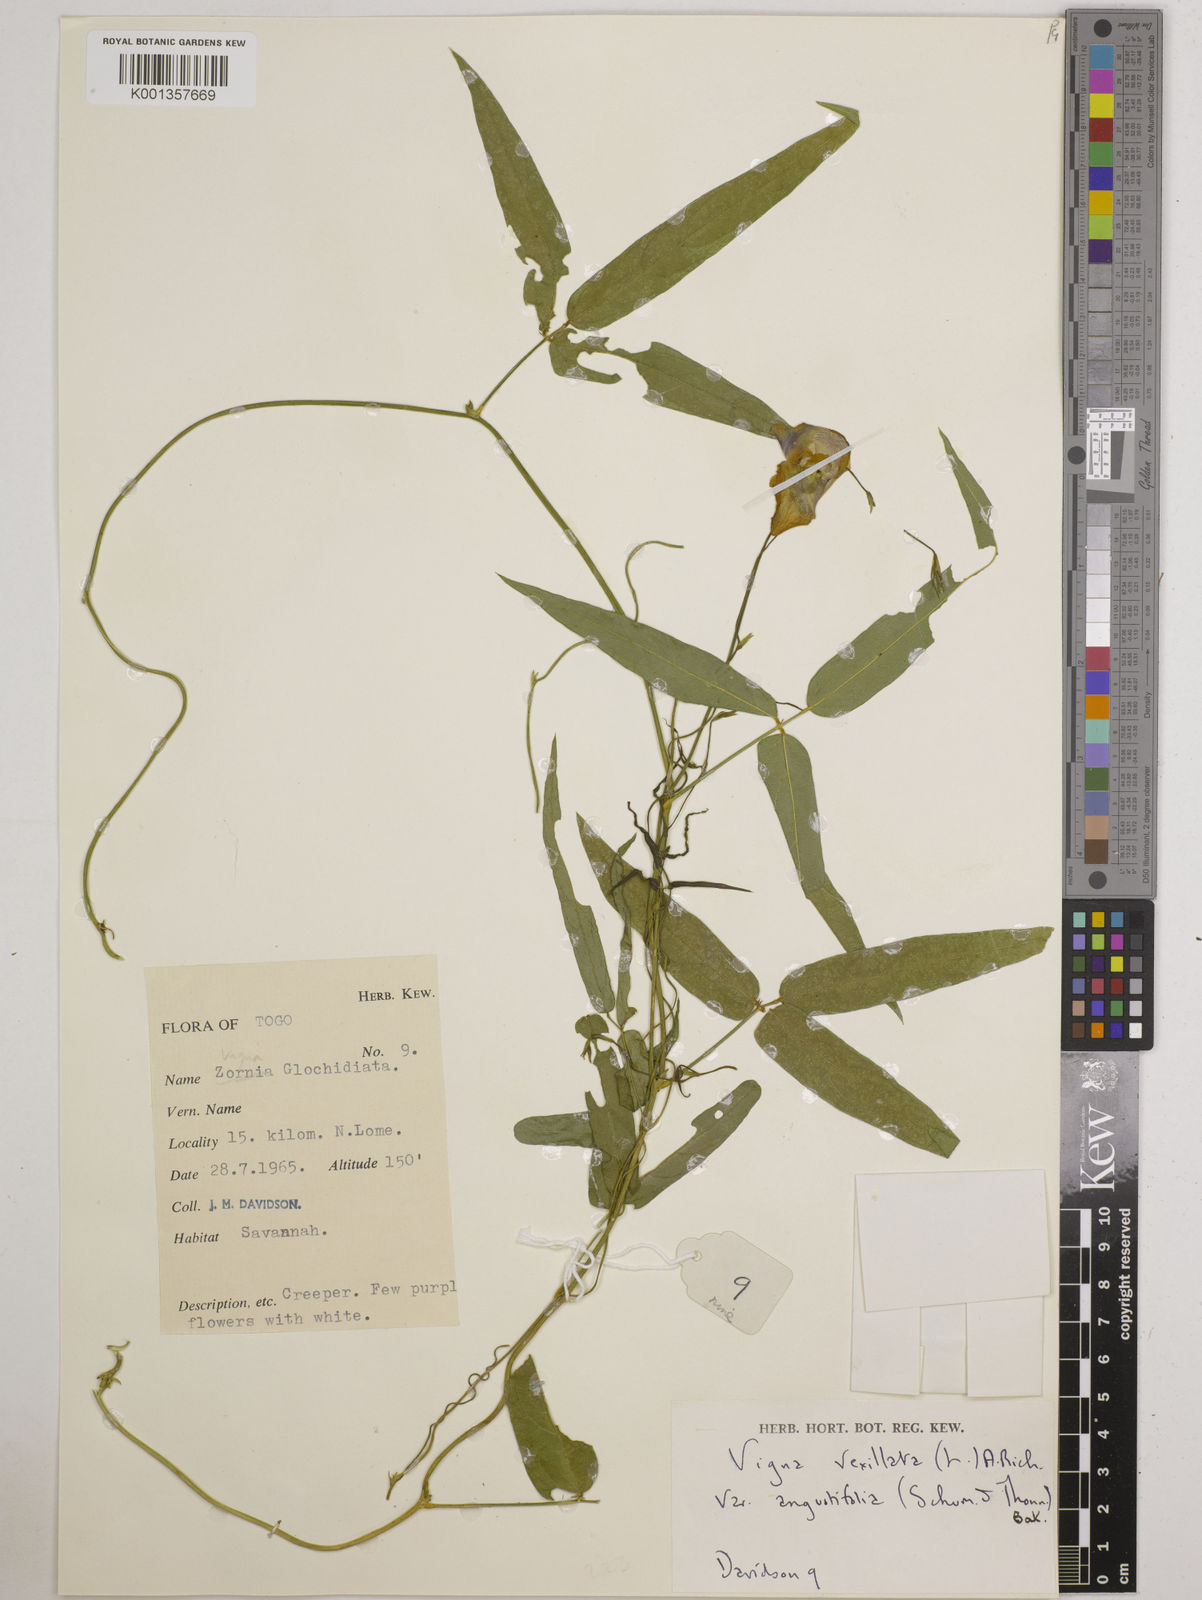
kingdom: Plantae
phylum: Tracheophyta
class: Magnoliopsida
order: Fabales
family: Fabaceae
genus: Vigna
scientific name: Vigna vexillata
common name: Zombi pea
